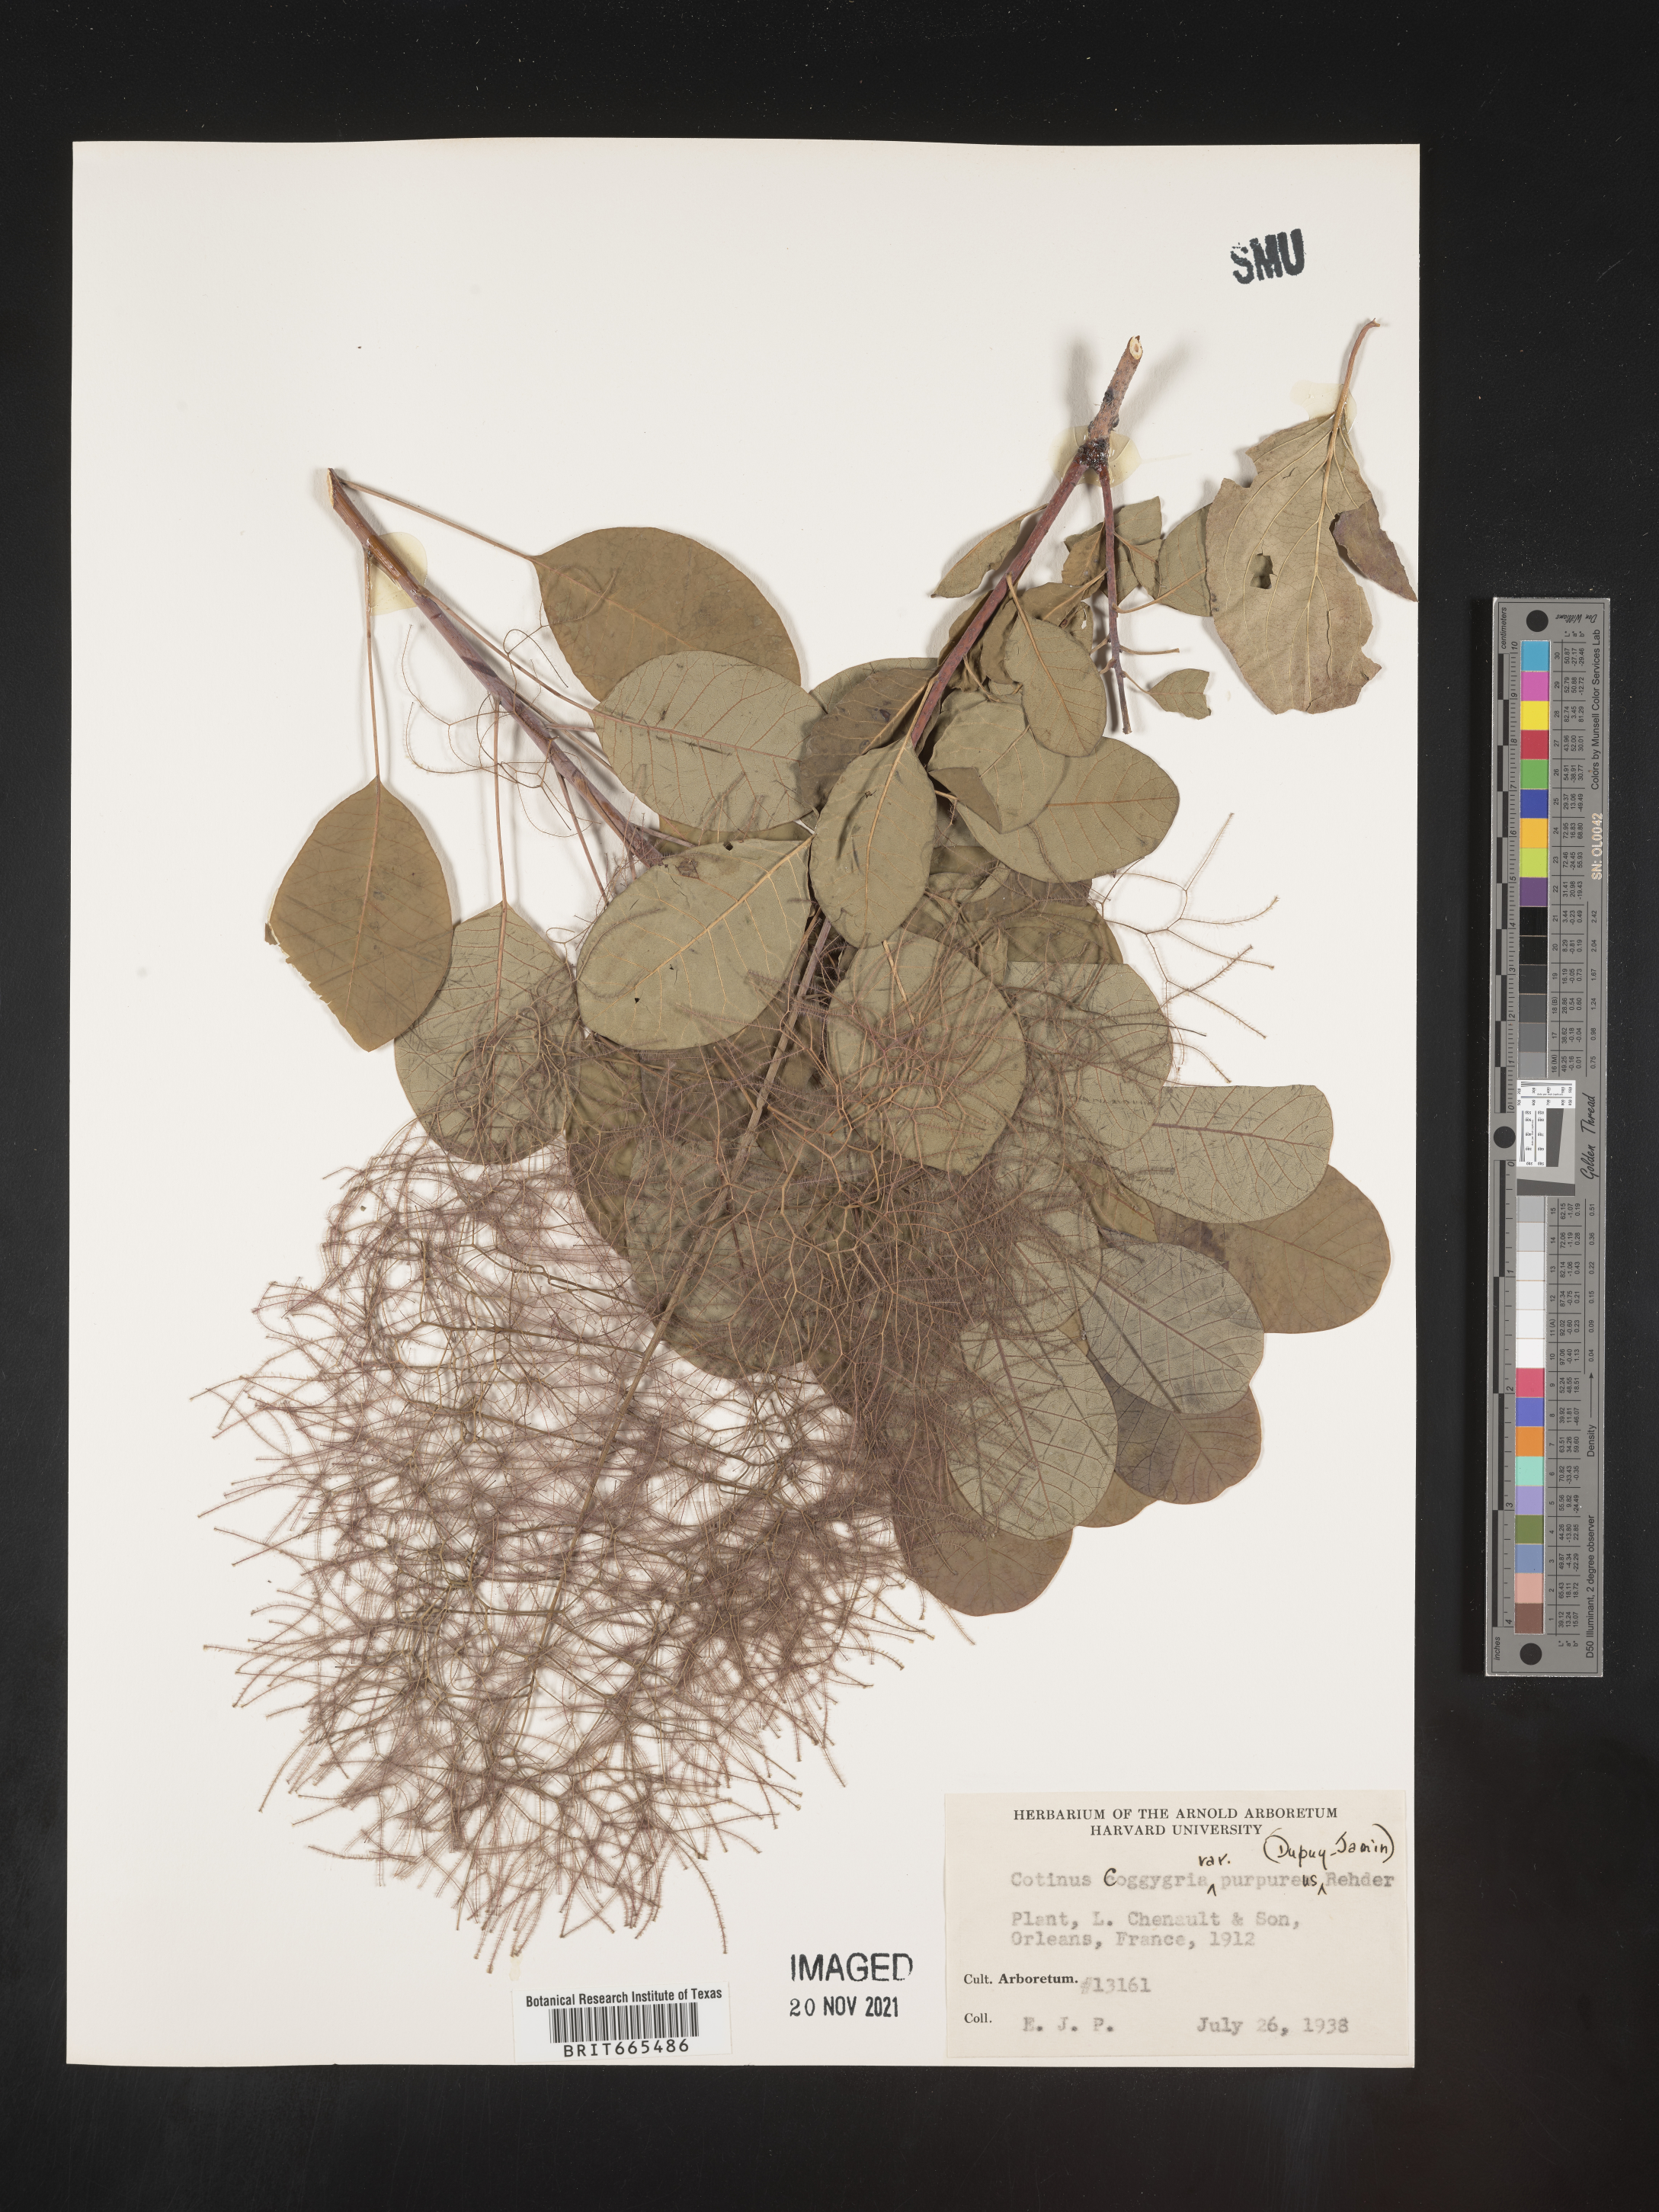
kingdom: Plantae
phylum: Tracheophyta
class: Magnoliopsida
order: Sapindales
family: Anacardiaceae
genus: Cotinus
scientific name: Cotinus
